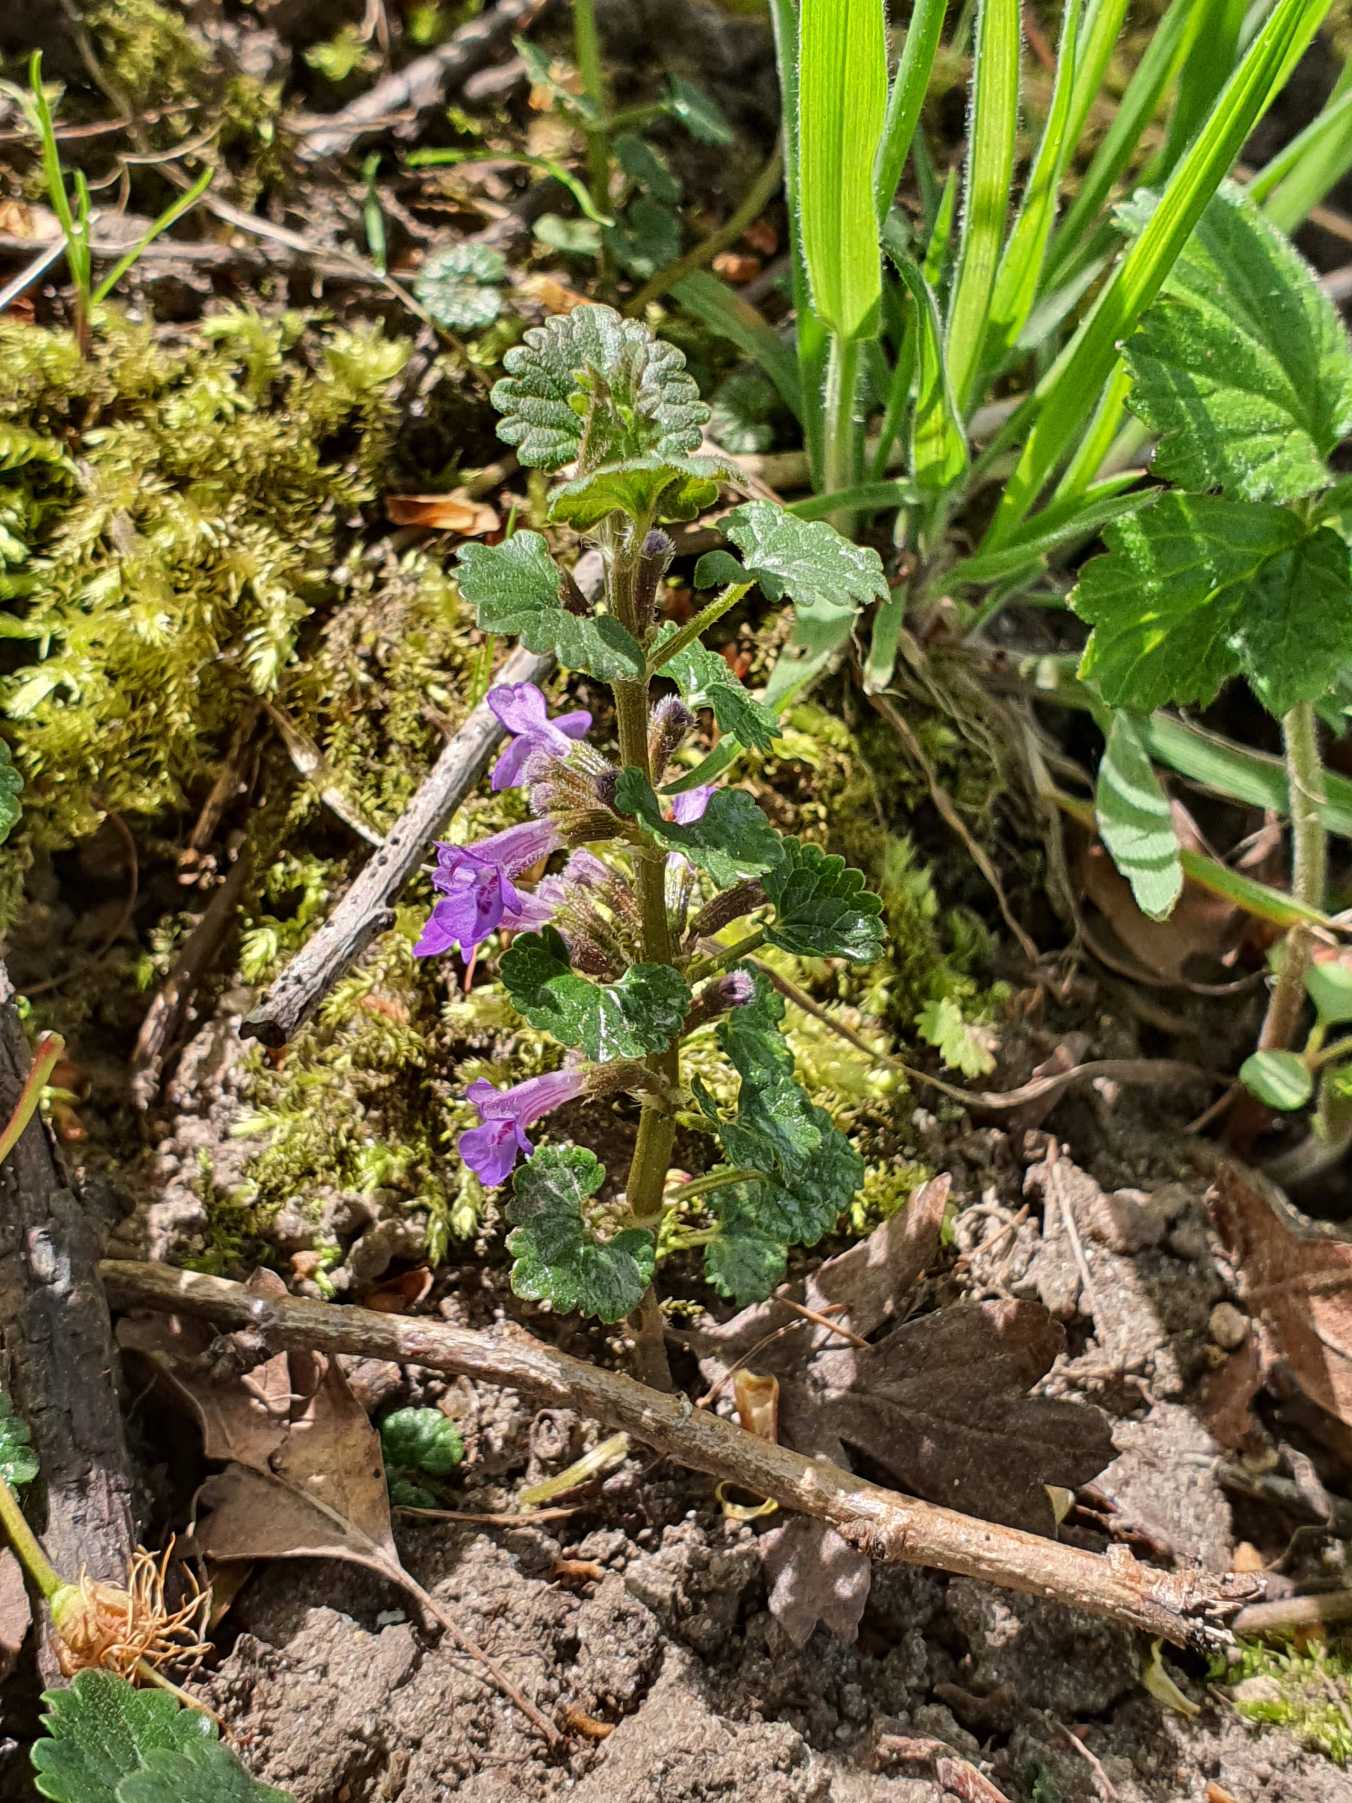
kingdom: Plantae
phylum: Tracheophyta
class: Magnoliopsida
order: Lamiales
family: Lamiaceae
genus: Glechoma
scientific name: Glechoma hederacea
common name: Korsknap
